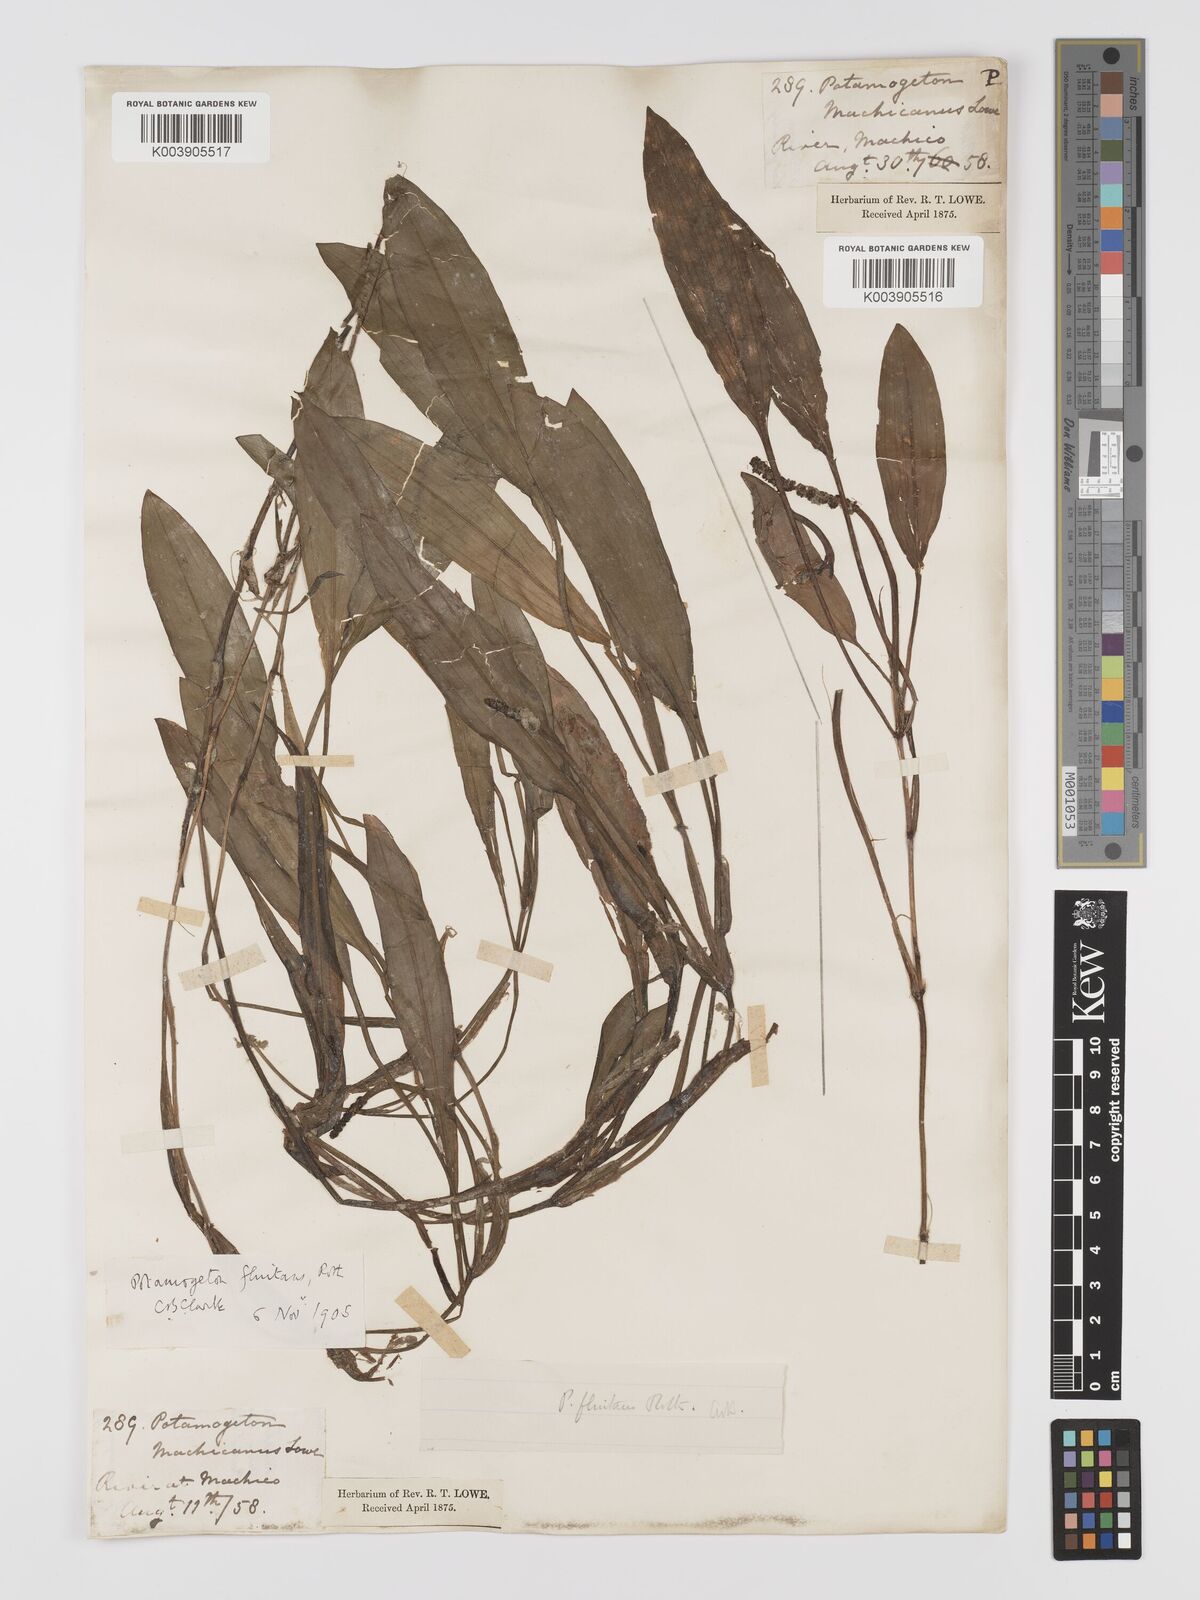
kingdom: Plantae
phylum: Tracheophyta
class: Liliopsida
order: Alismatales
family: Potamogetonaceae
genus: Potamogeton
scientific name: Potamogeton nodosus
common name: Loddon pondweed
